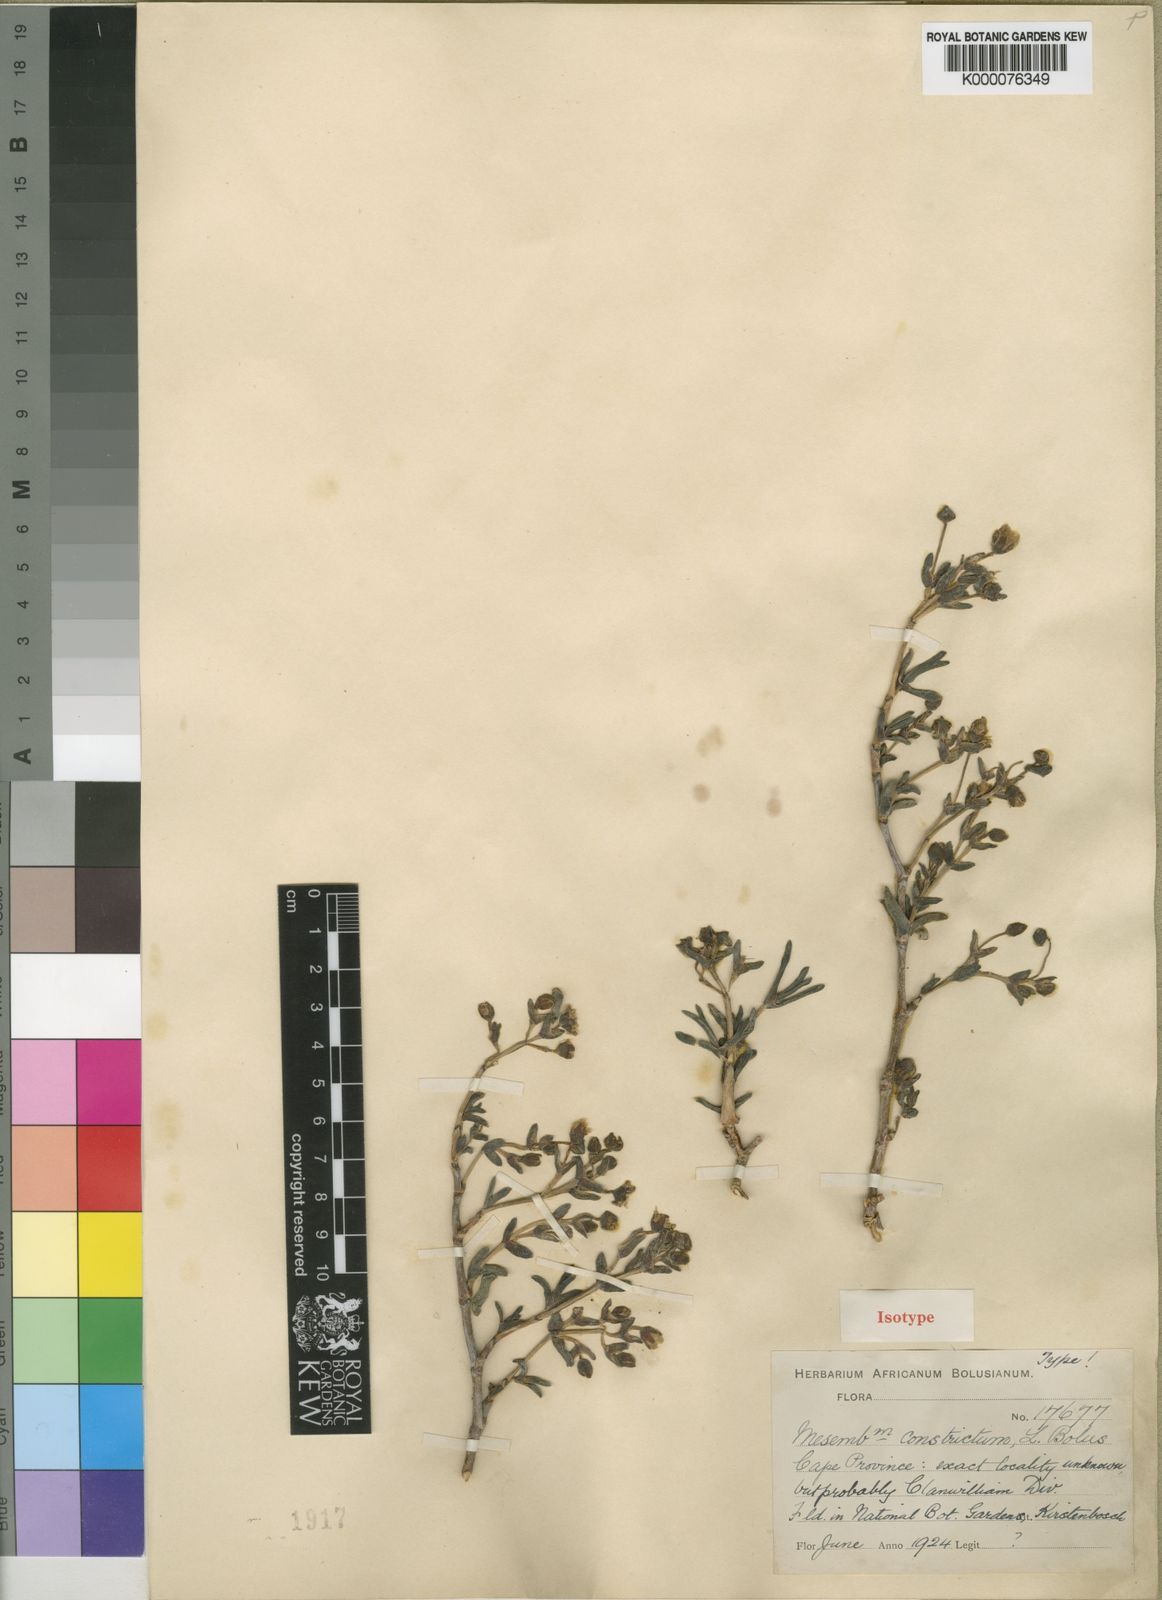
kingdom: Plantae
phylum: Tracheophyta
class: Magnoliopsida
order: Caryophyllales
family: Aizoaceae
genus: Leipoldtia
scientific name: Leipoldtia schultzei
